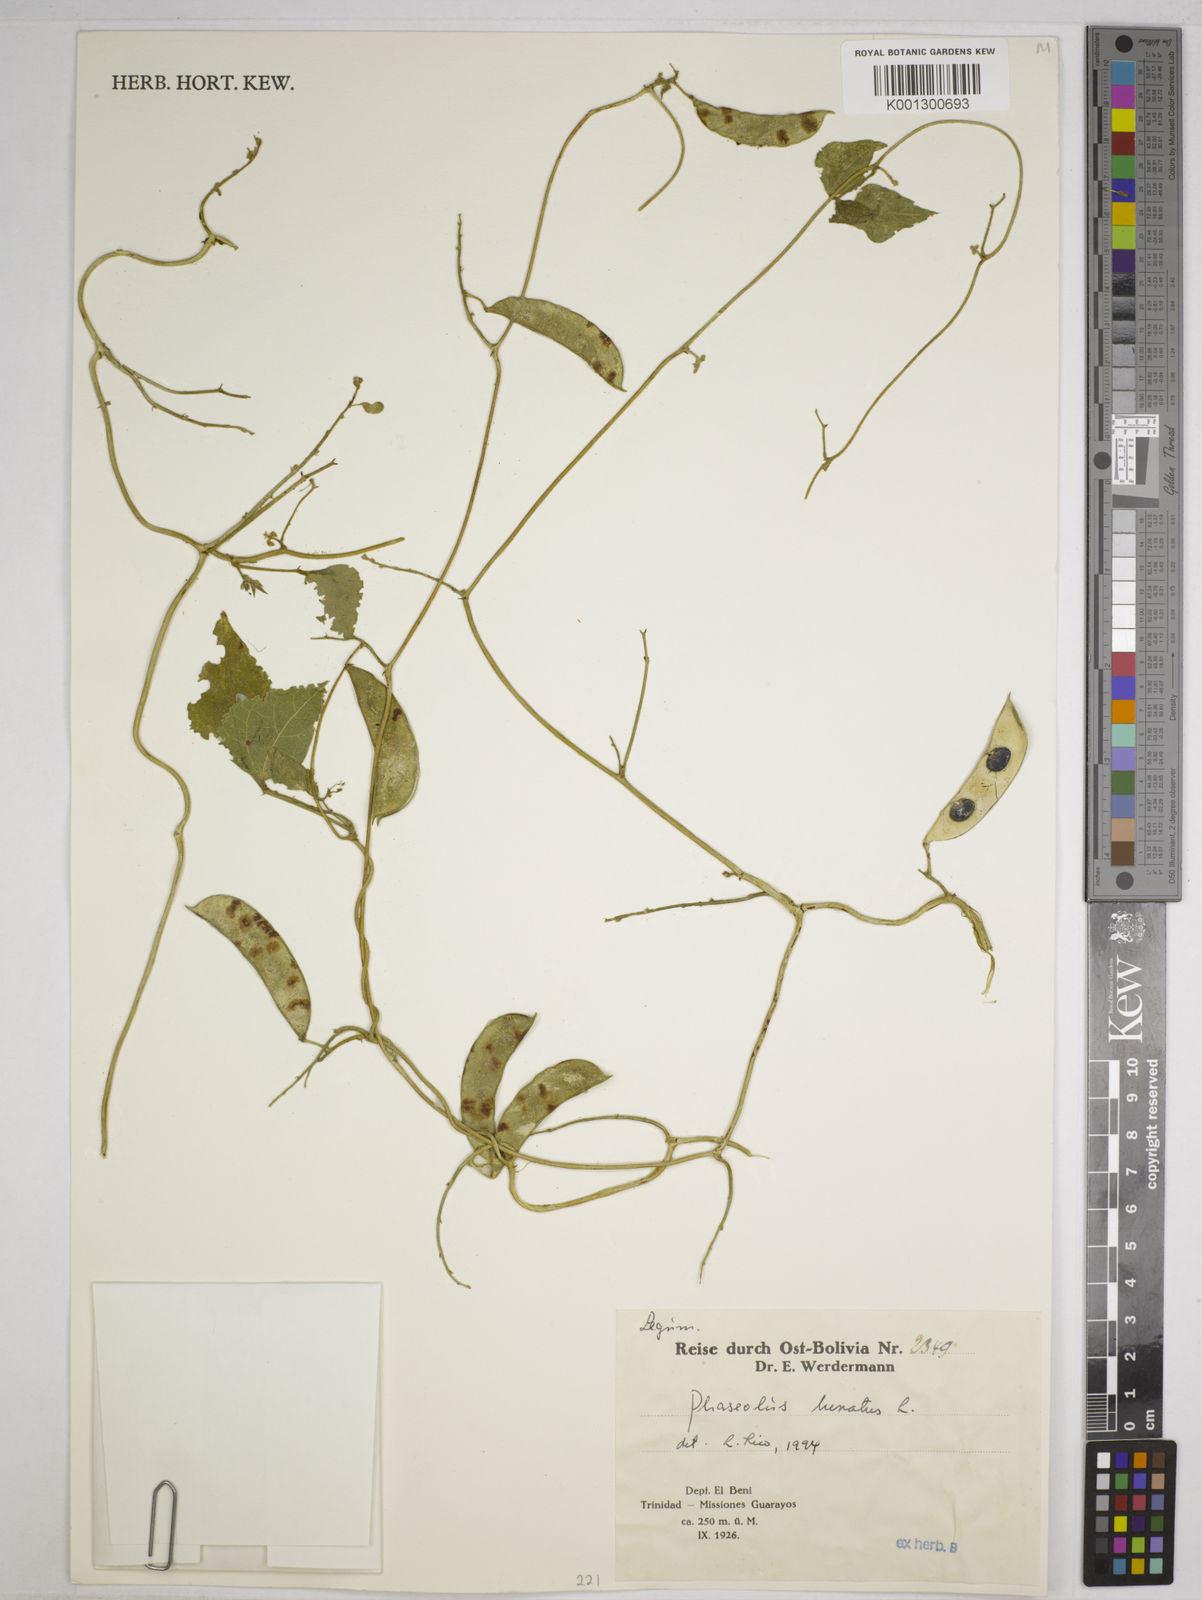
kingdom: Plantae
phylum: Tracheophyta
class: Magnoliopsida
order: Fabales
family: Fabaceae
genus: Phaseolus
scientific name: Phaseolus lunatus
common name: Sieva bean
